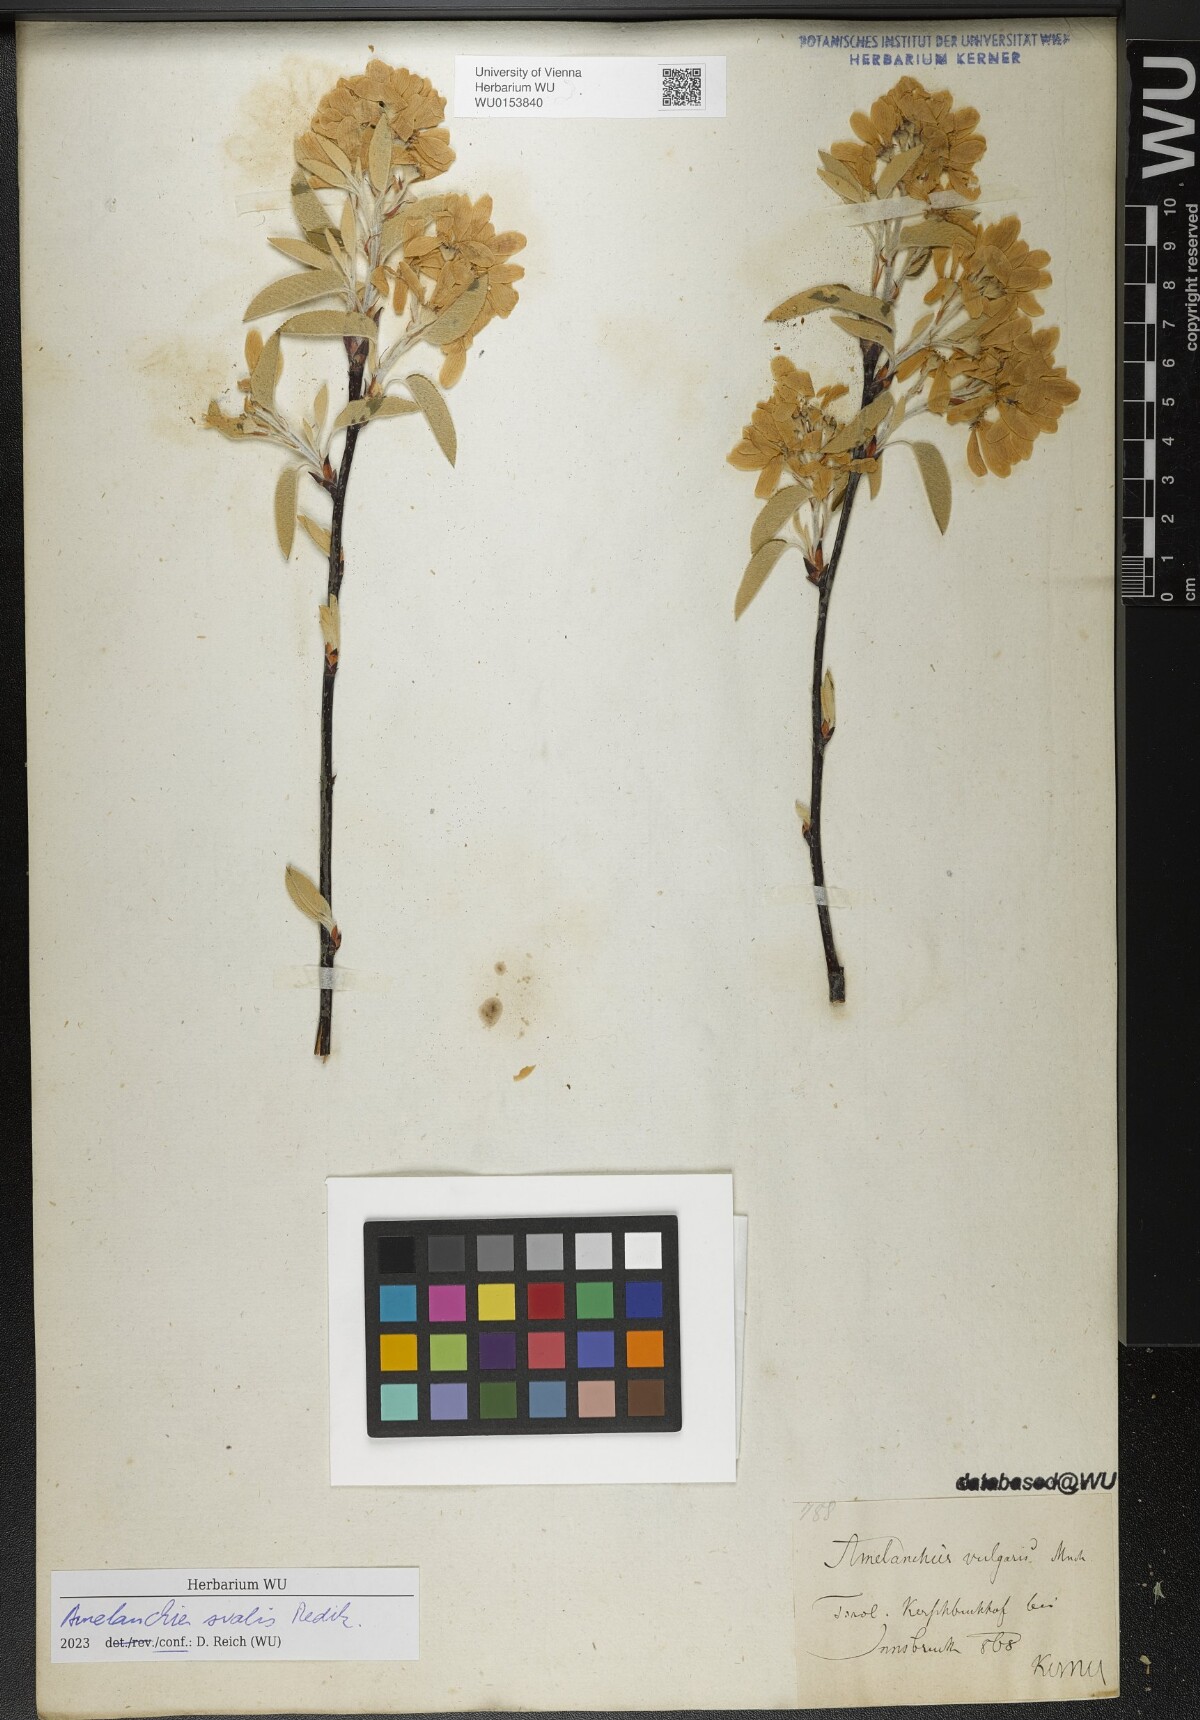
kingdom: Plantae
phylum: Tracheophyta
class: Magnoliopsida
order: Rosales
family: Rosaceae
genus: Amelanchier
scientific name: Amelanchier ovalis
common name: Serviceberry
